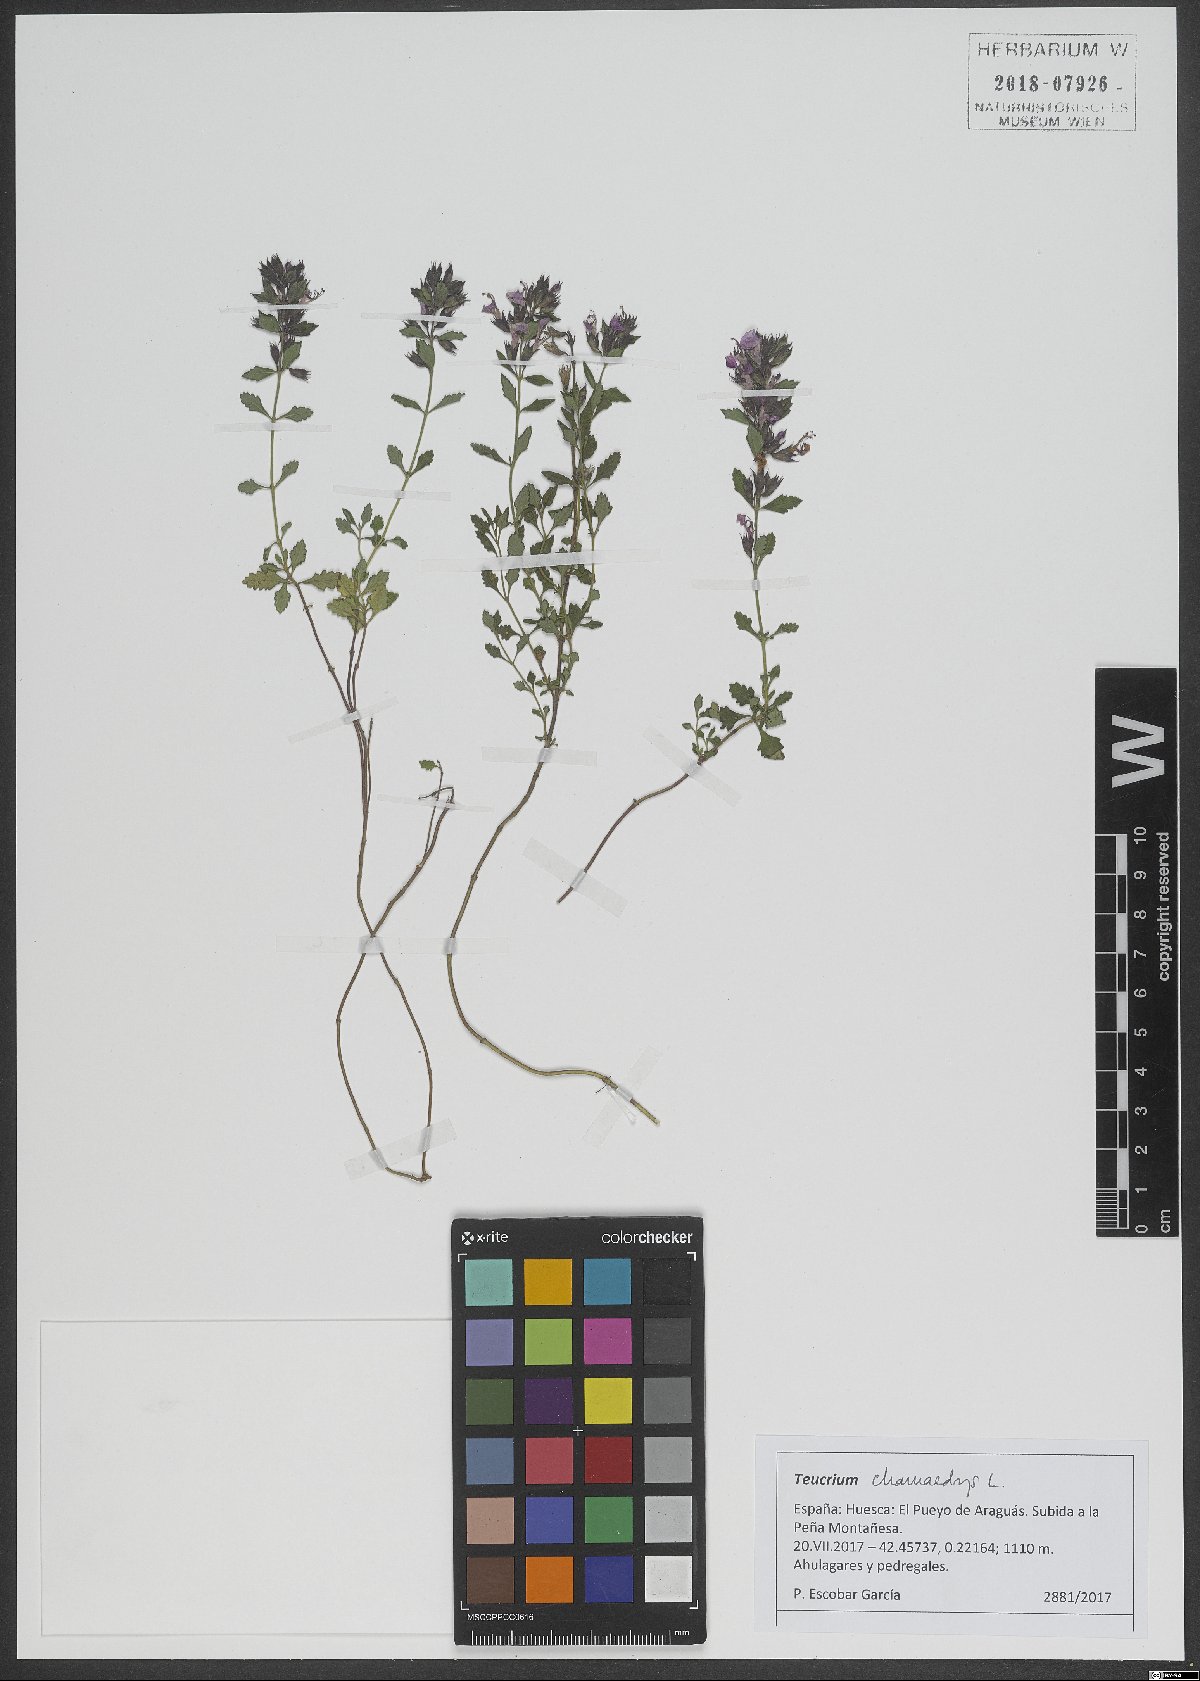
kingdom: Plantae
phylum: Tracheophyta
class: Magnoliopsida
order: Lamiales
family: Lamiaceae
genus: Teucrium
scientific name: Teucrium chamaedrys
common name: Wall germander
